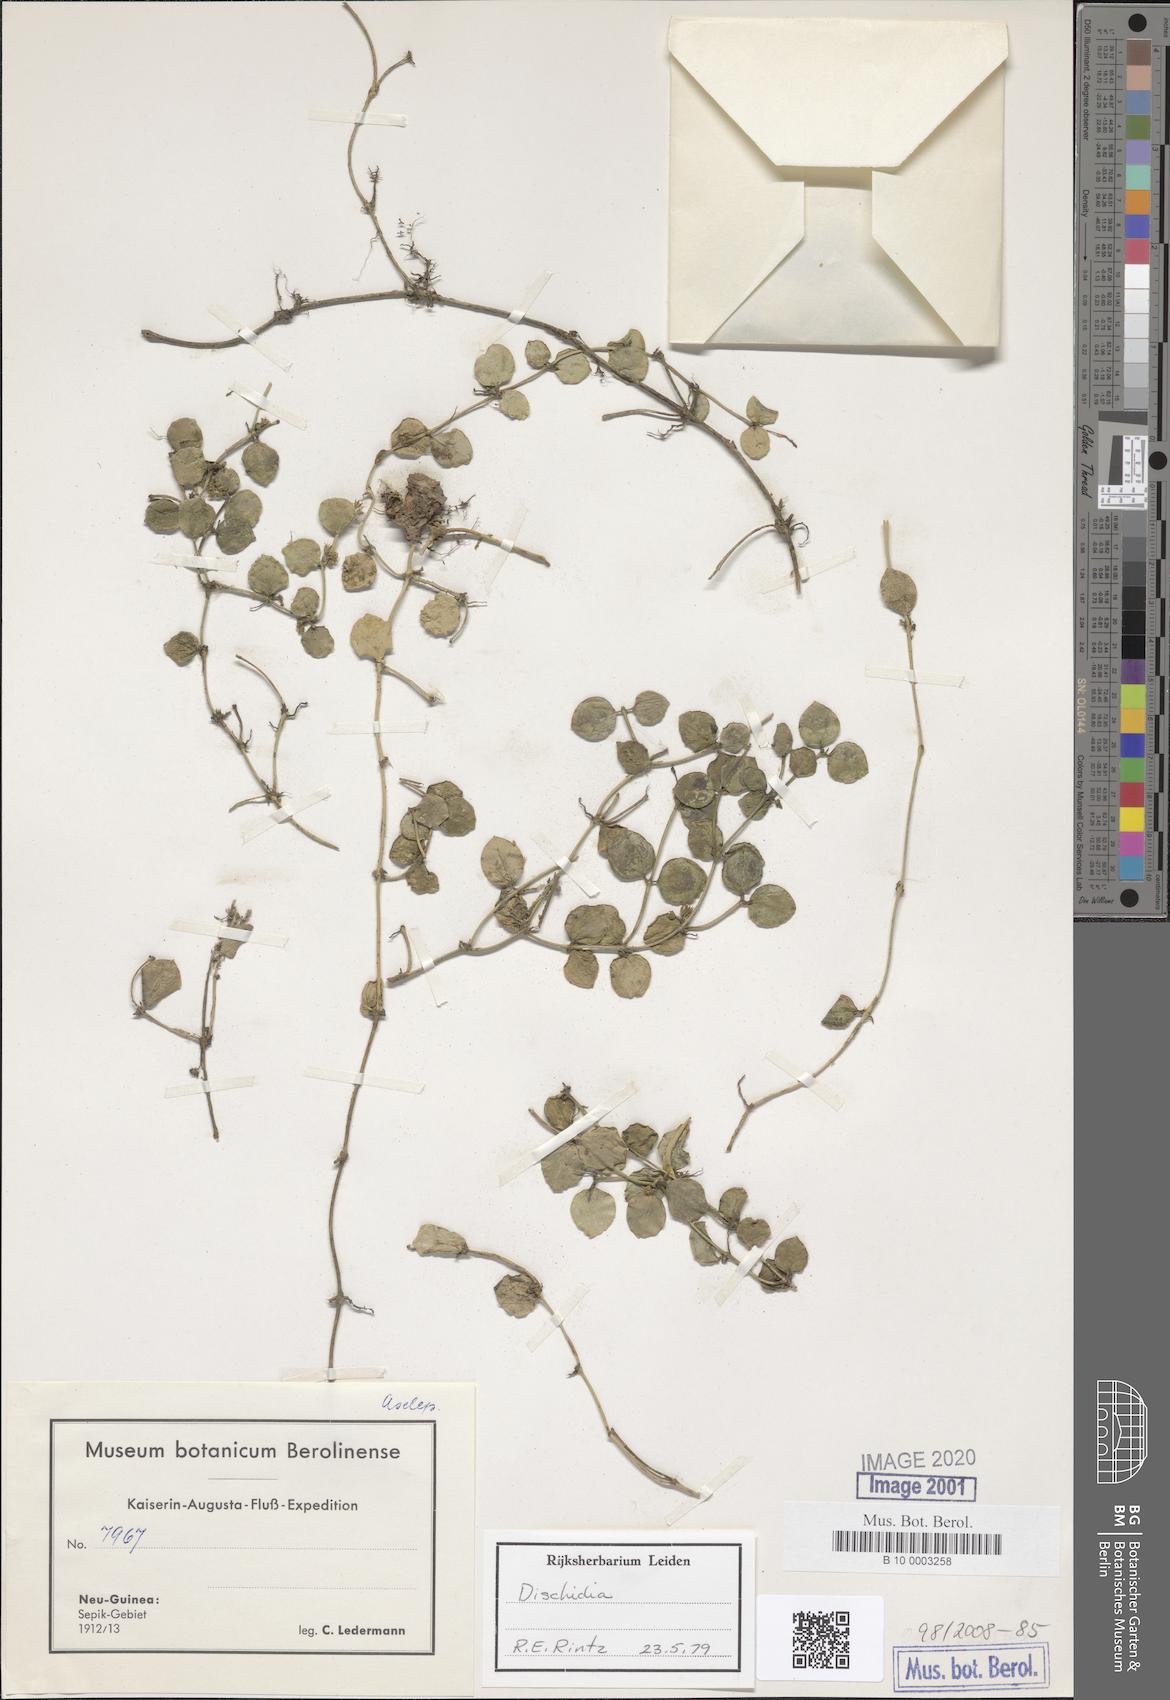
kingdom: Plantae
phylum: Tracheophyta
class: Magnoliopsida
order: Gentianales
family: Apocynaceae
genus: Dischidia
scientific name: Dischidia
